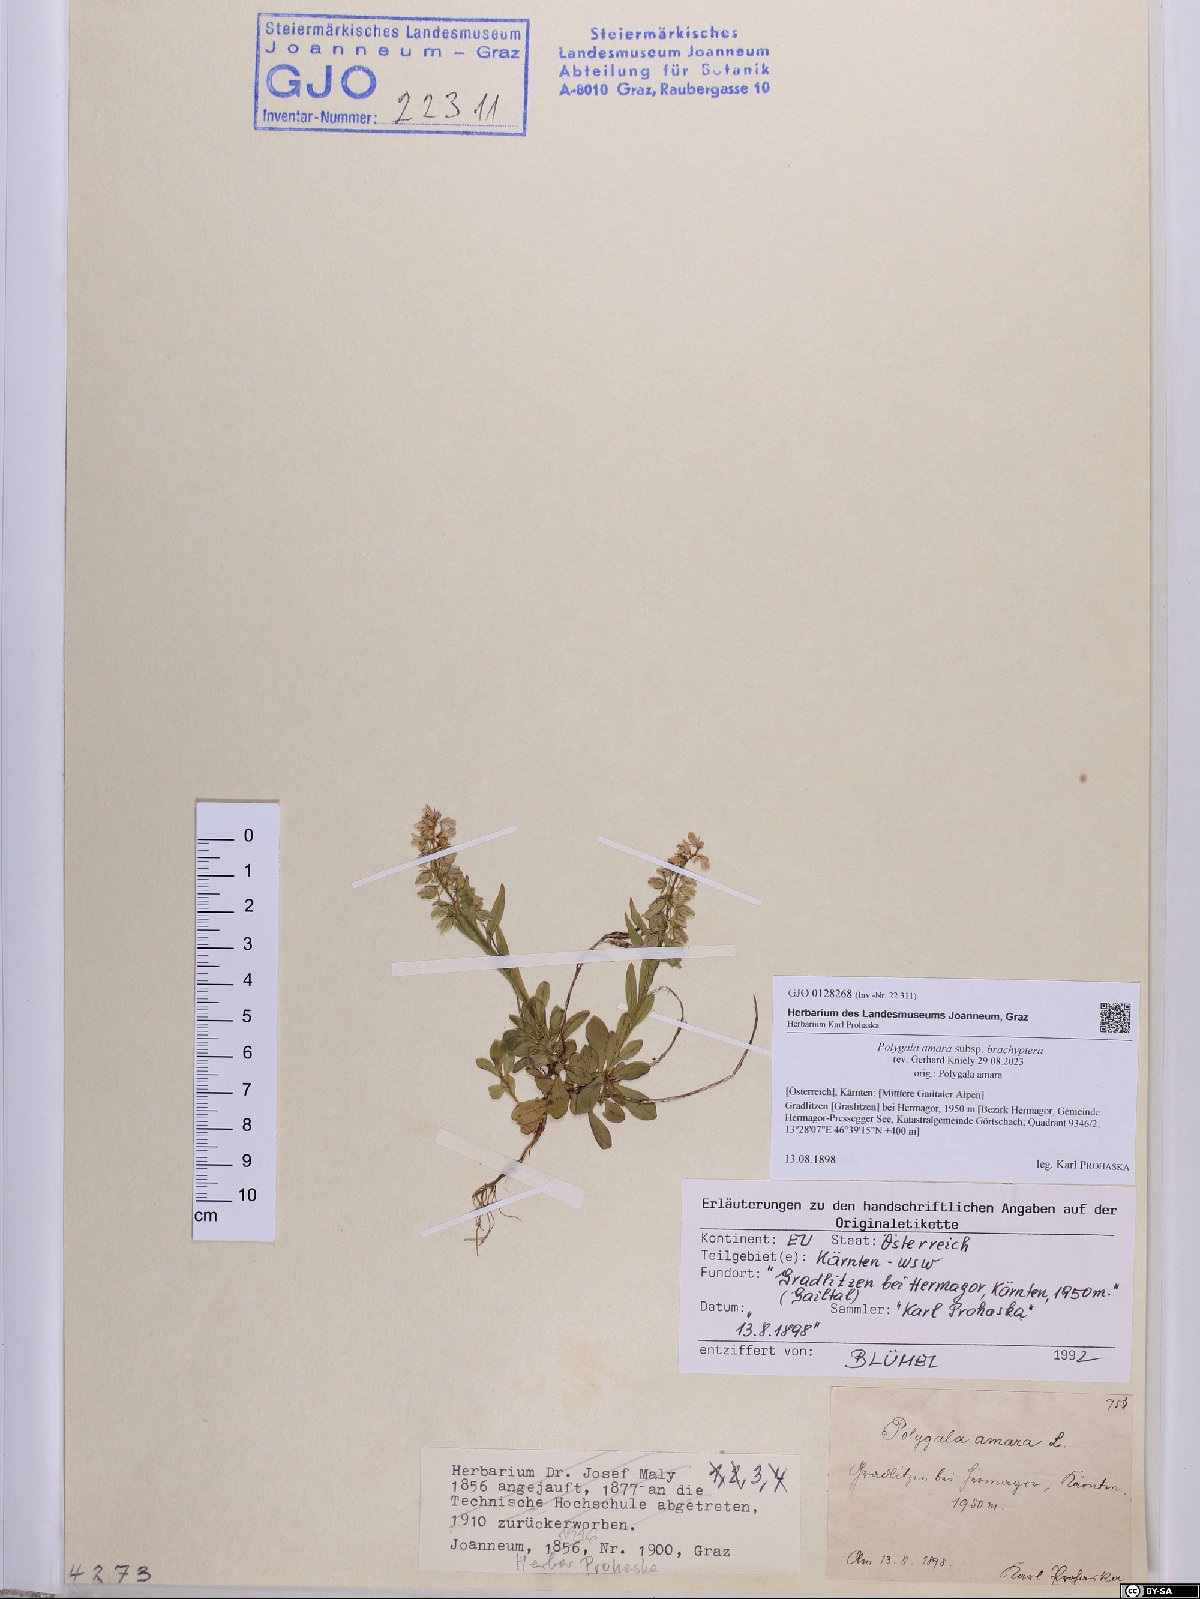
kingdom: Plantae
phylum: Tracheophyta
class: Magnoliopsida
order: Fabales
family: Polygalaceae
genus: Polygala
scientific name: Polygala amara
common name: Milkwort
